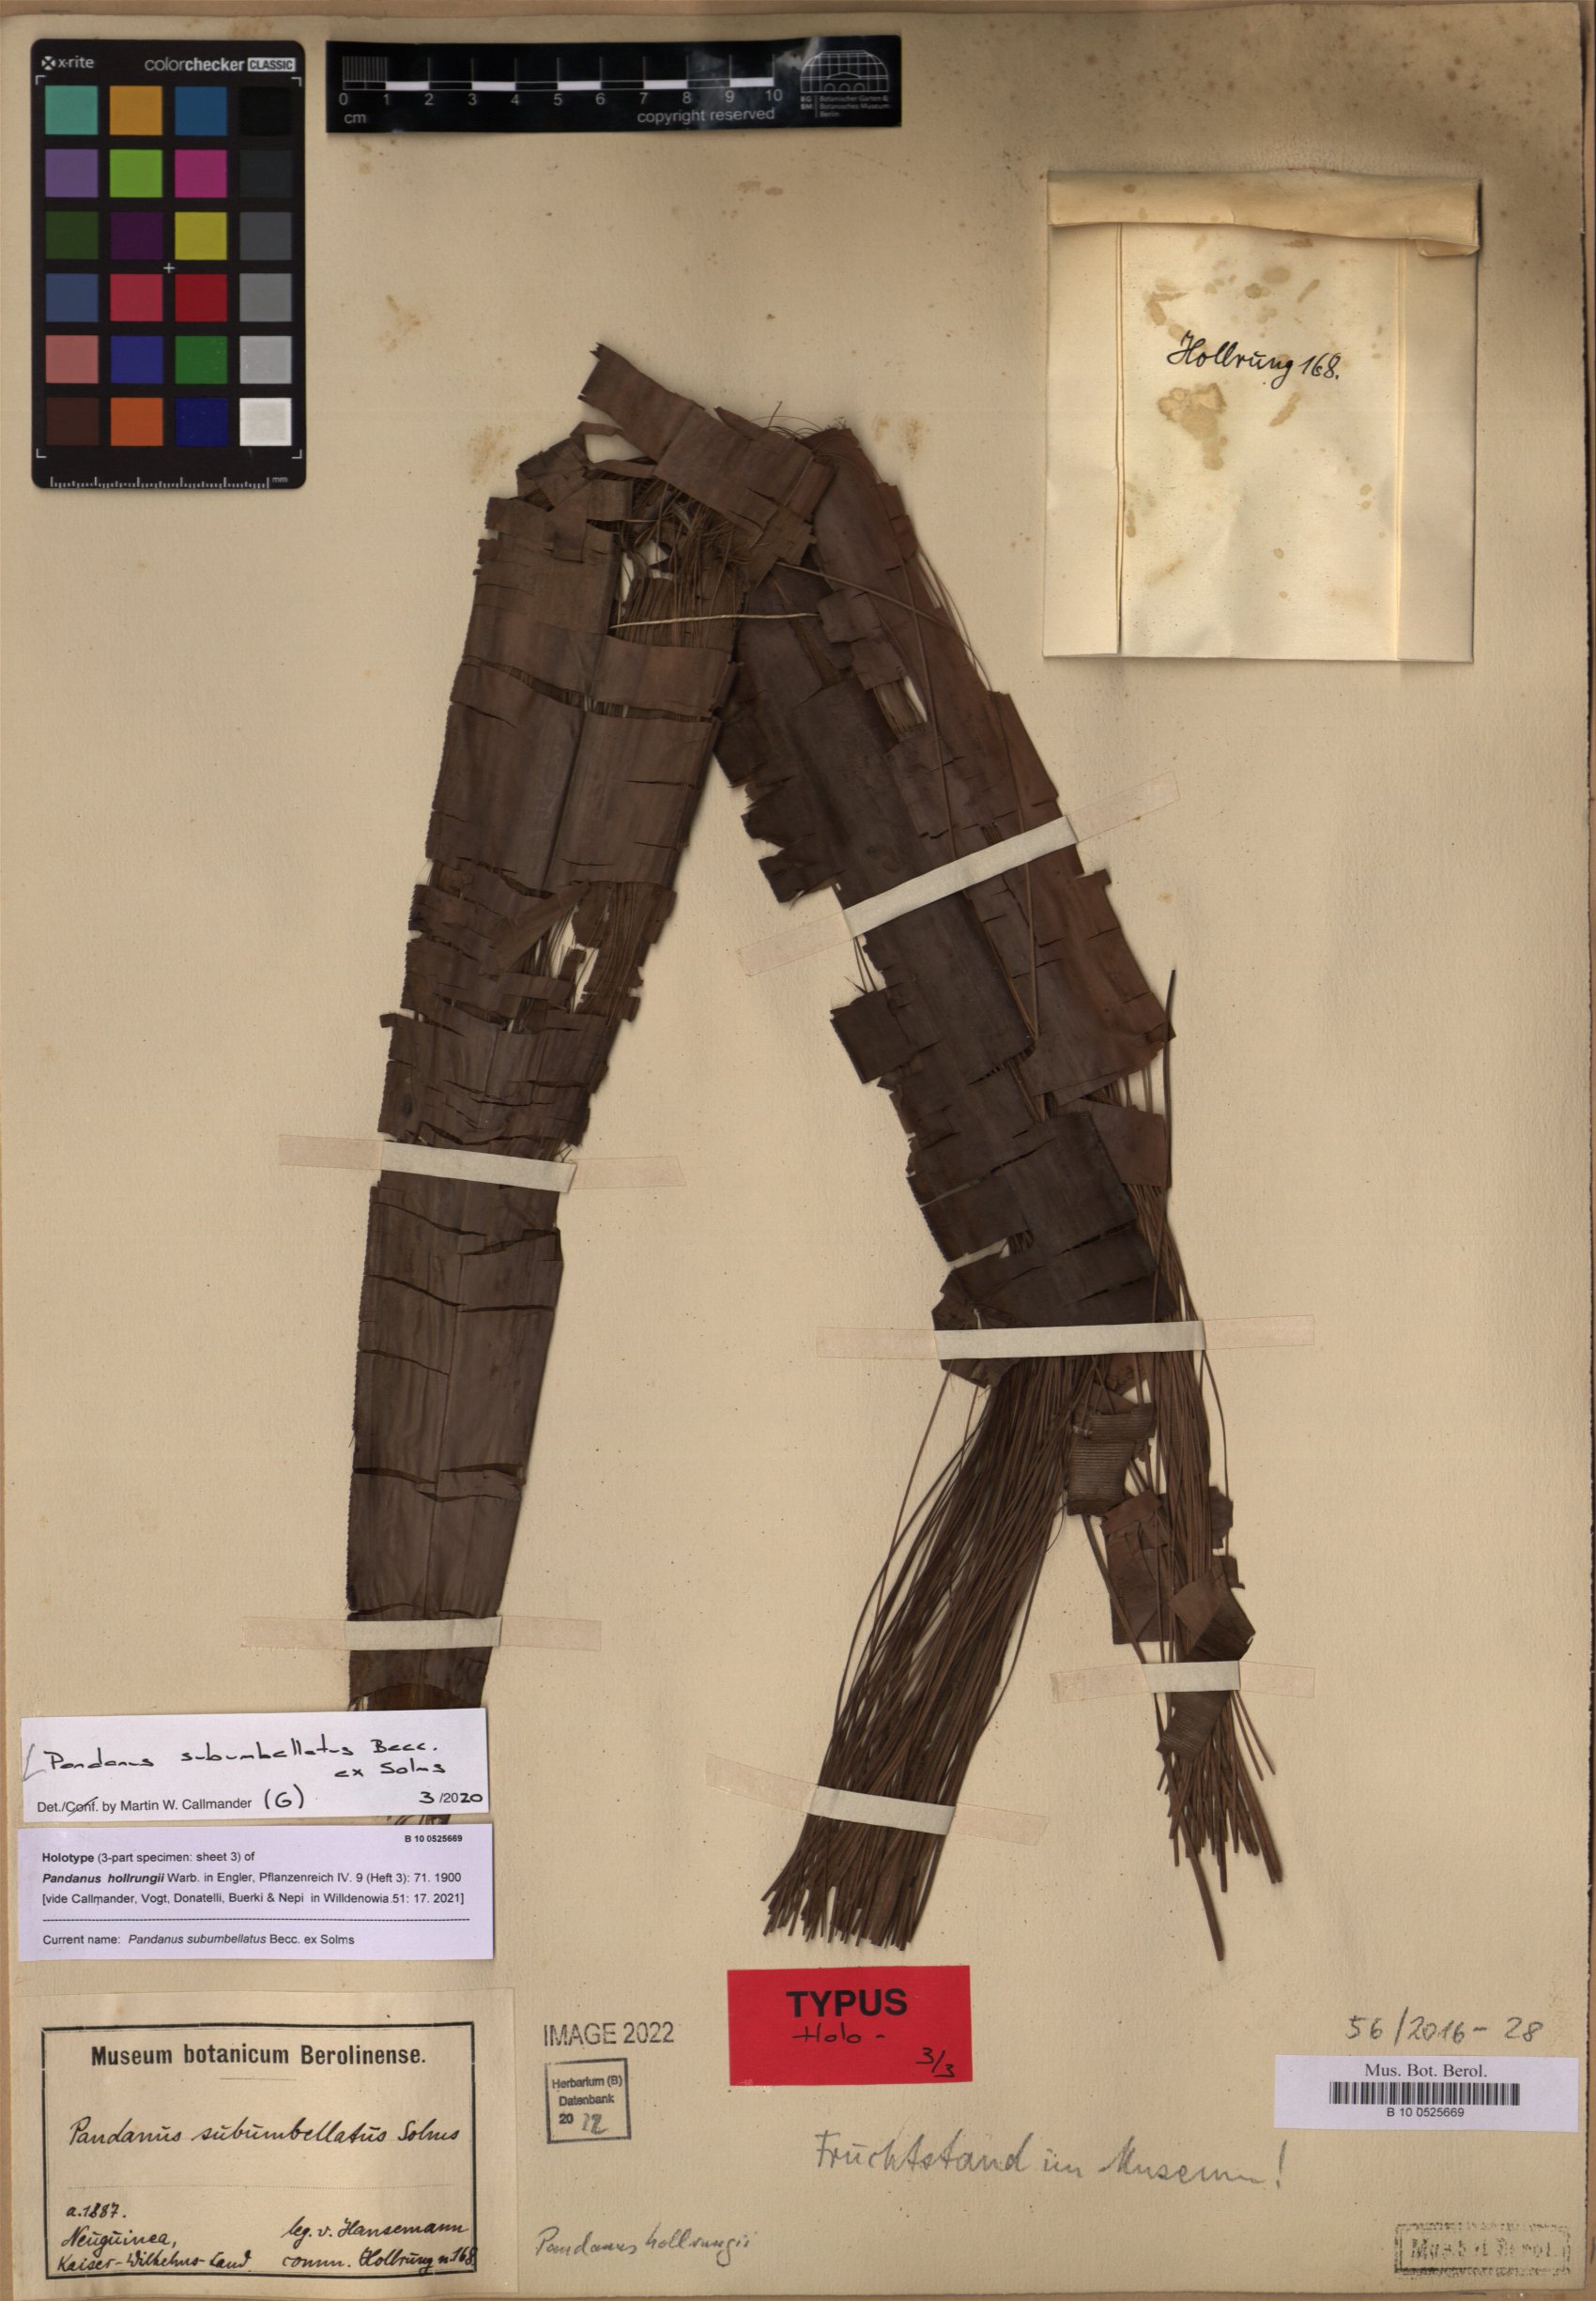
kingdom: Plantae
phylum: Tracheophyta
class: Liliopsida
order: Pandanales
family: Pandanaceae
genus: Pandanus
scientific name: Pandanus conoideus
